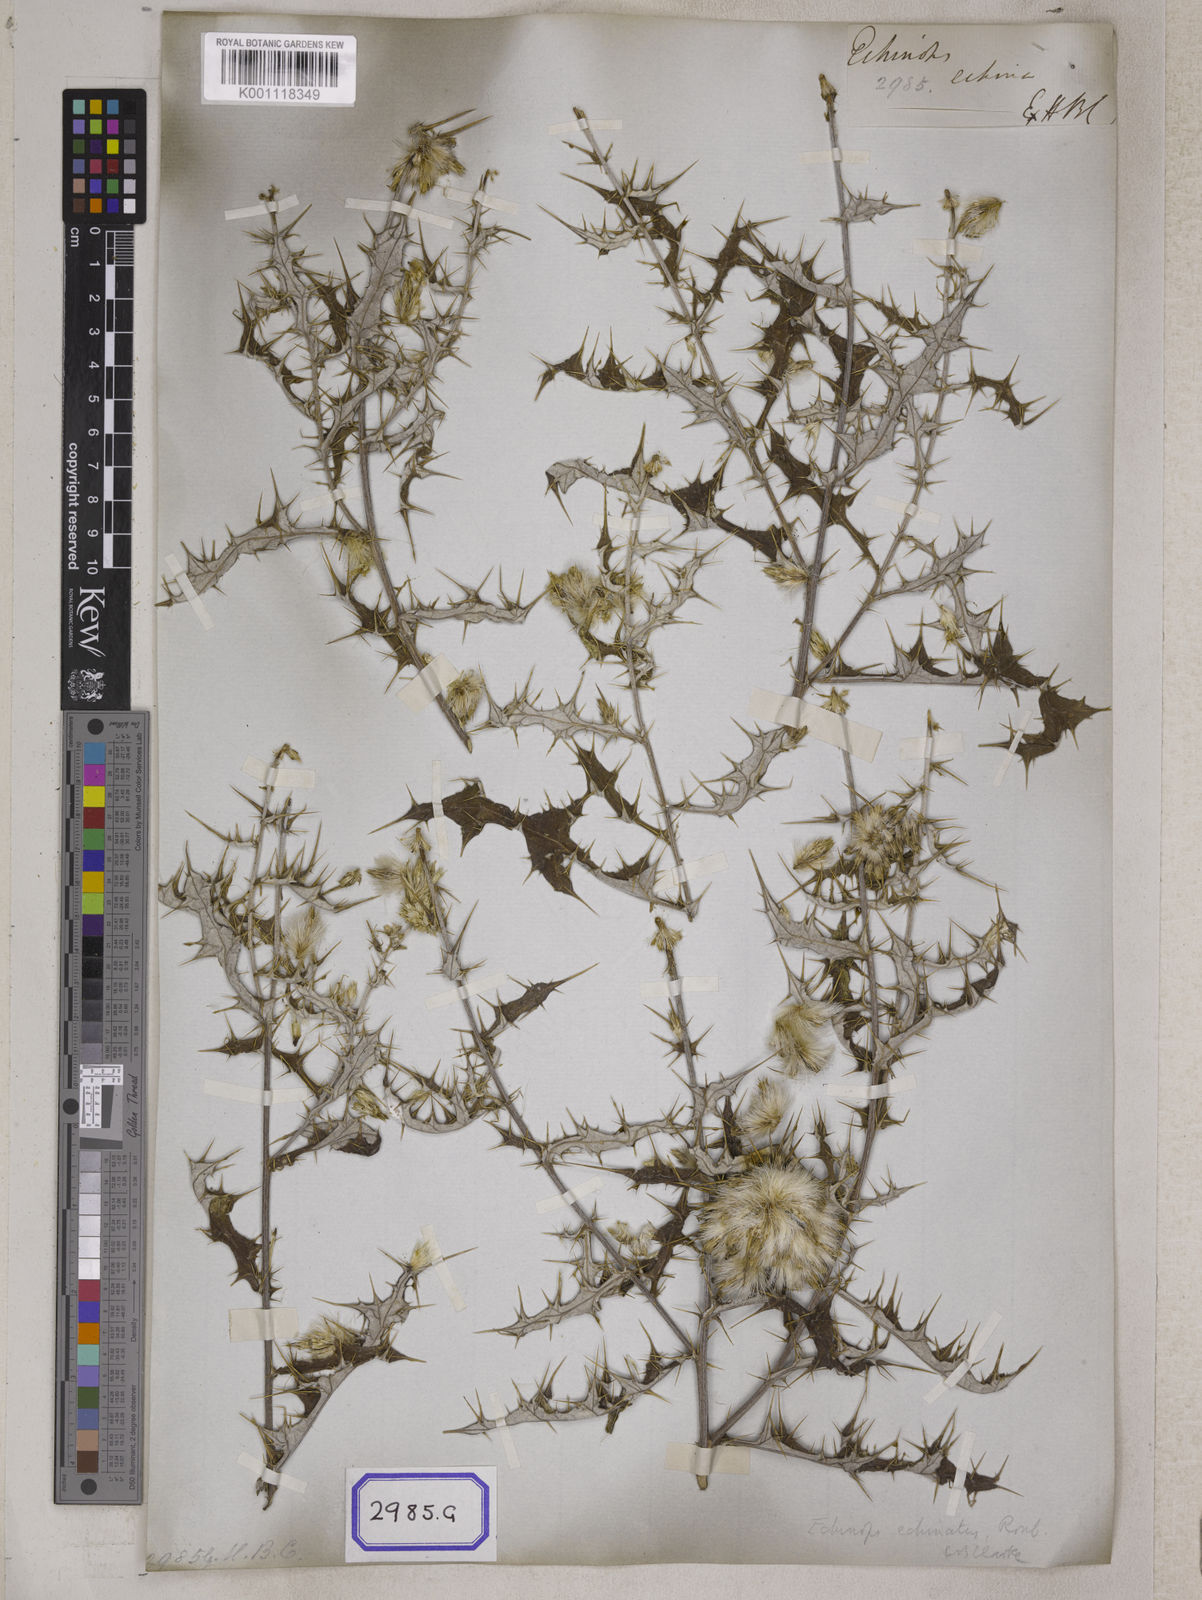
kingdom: Plantae
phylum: Tracheophyta
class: Magnoliopsida
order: Asterales
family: Asteraceae
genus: Echinops
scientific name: Echinops echinatus
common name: Indian globe thistle
